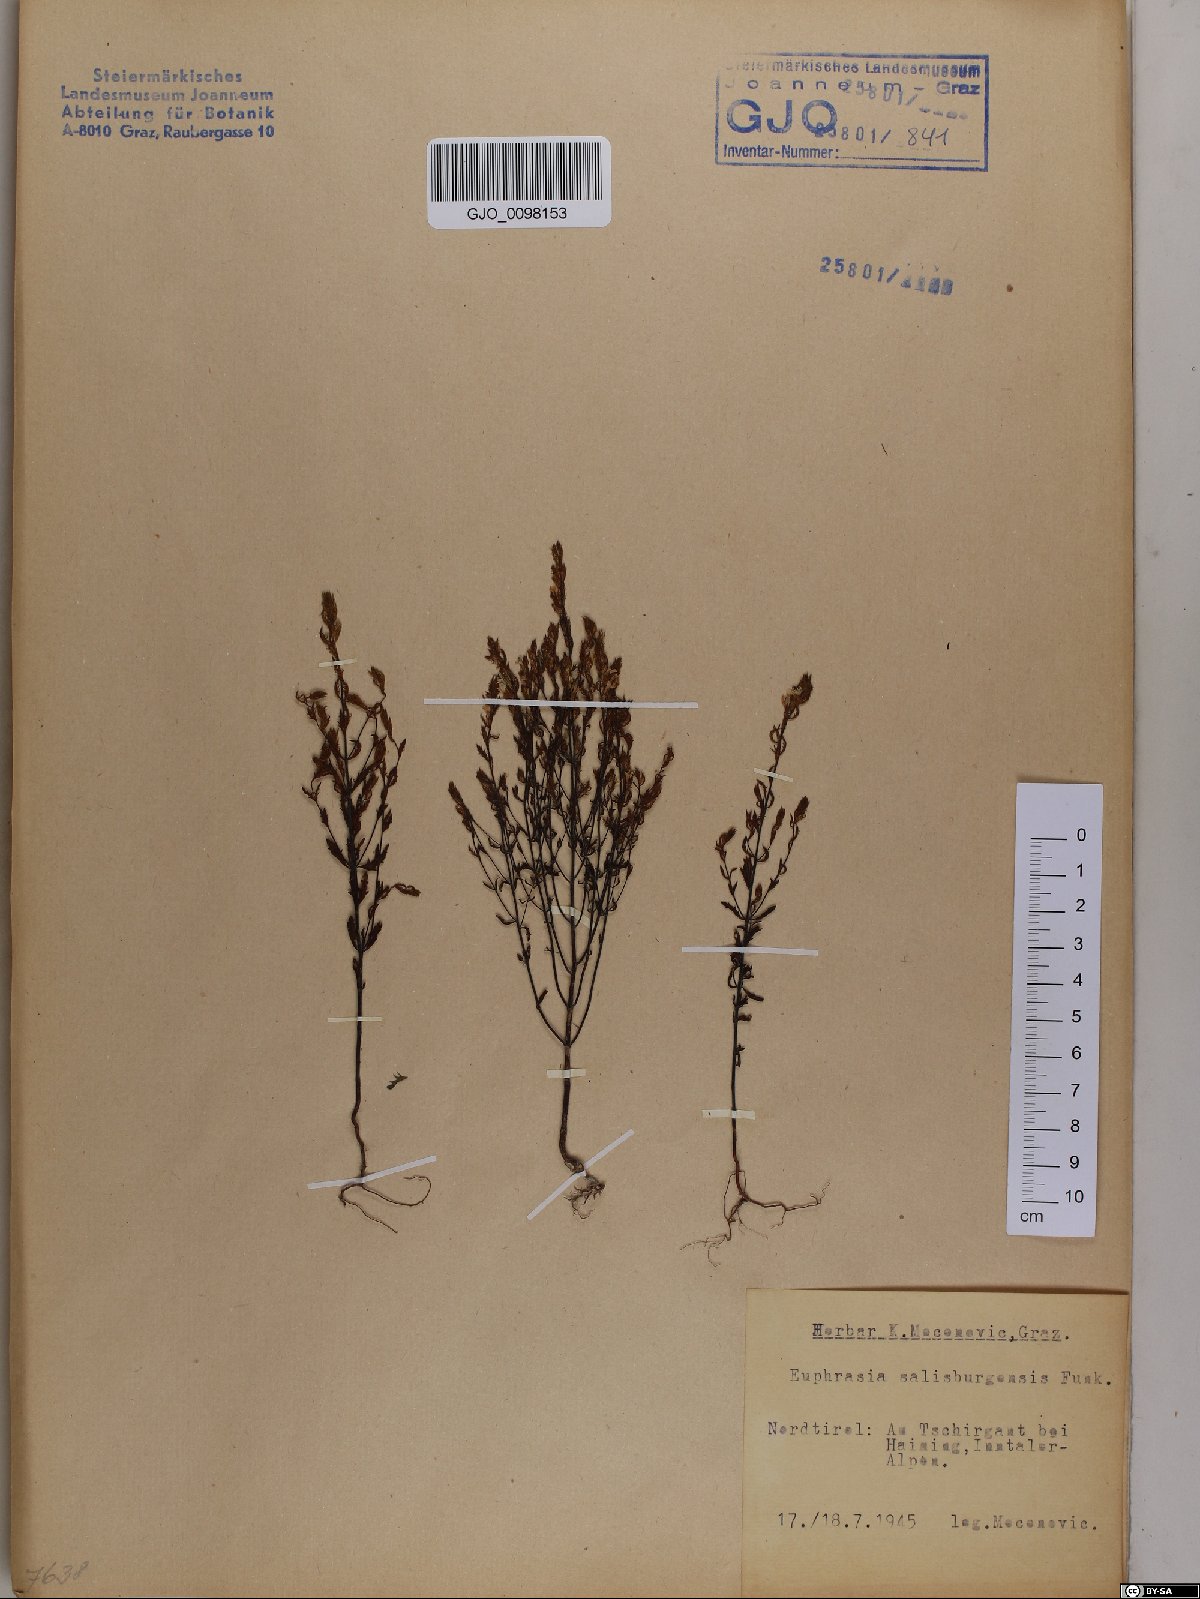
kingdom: Plantae
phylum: Tracheophyta
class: Magnoliopsida
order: Lamiales
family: Orobanchaceae
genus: Euphrasia
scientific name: Euphrasia salisburgensis
